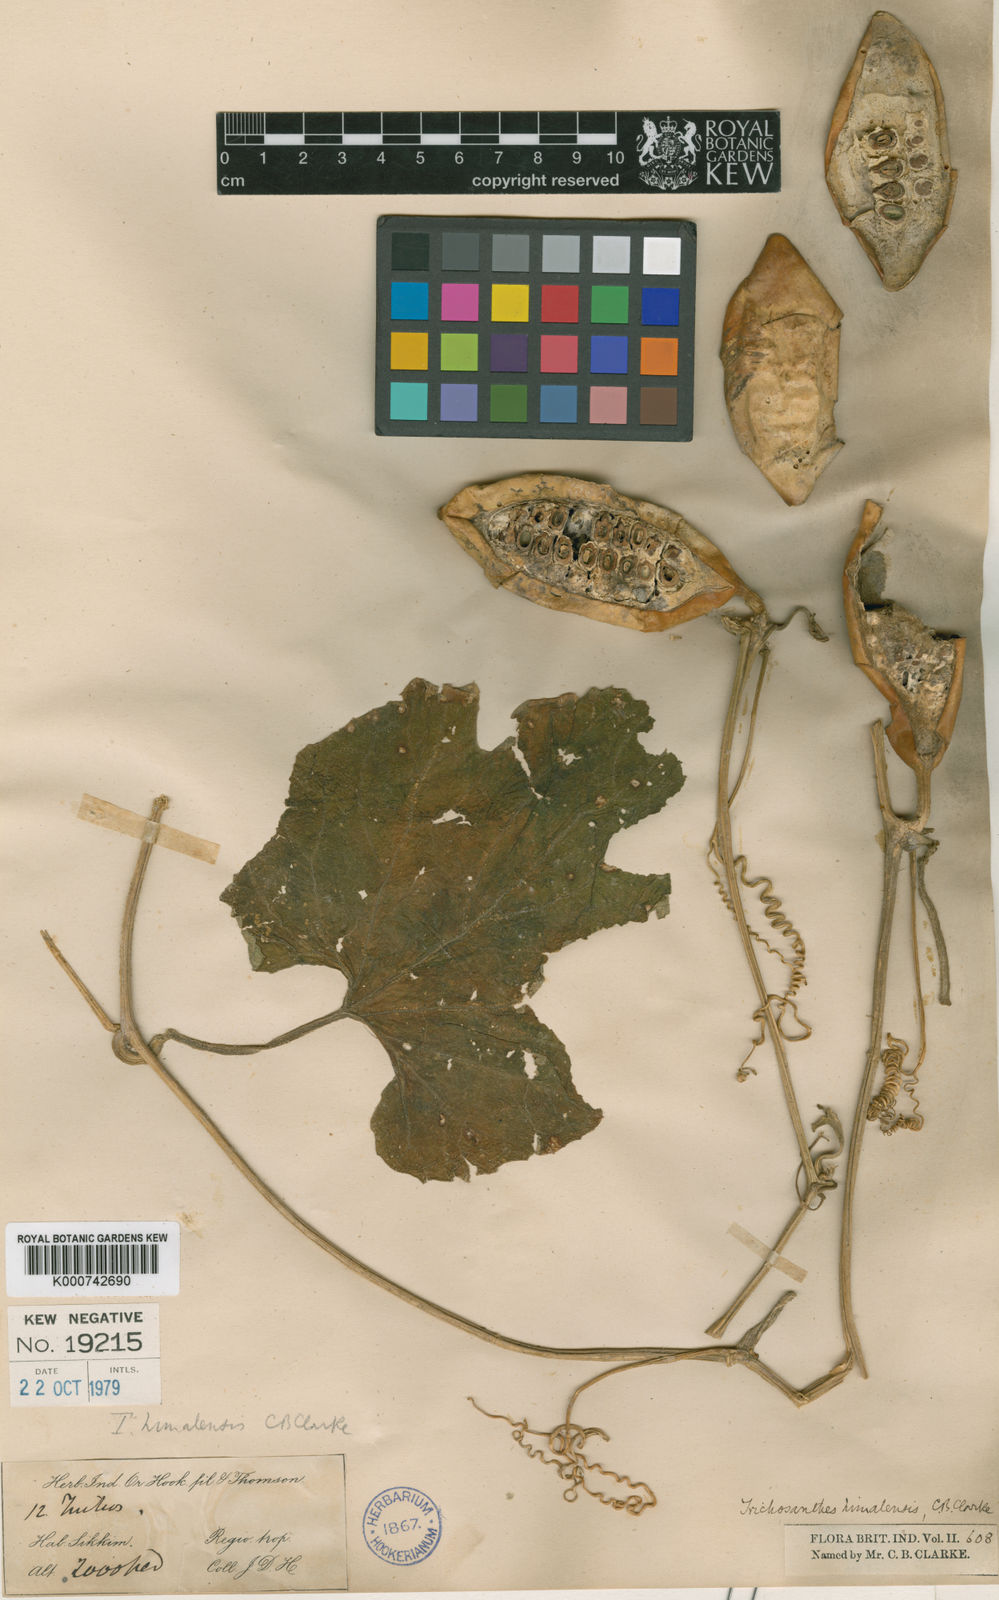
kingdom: Plantae
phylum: Tracheophyta
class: Magnoliopsida
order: Cucurbitales
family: Cucurbitaceae
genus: Trichosanthes
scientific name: Trichosanthes ovigera
